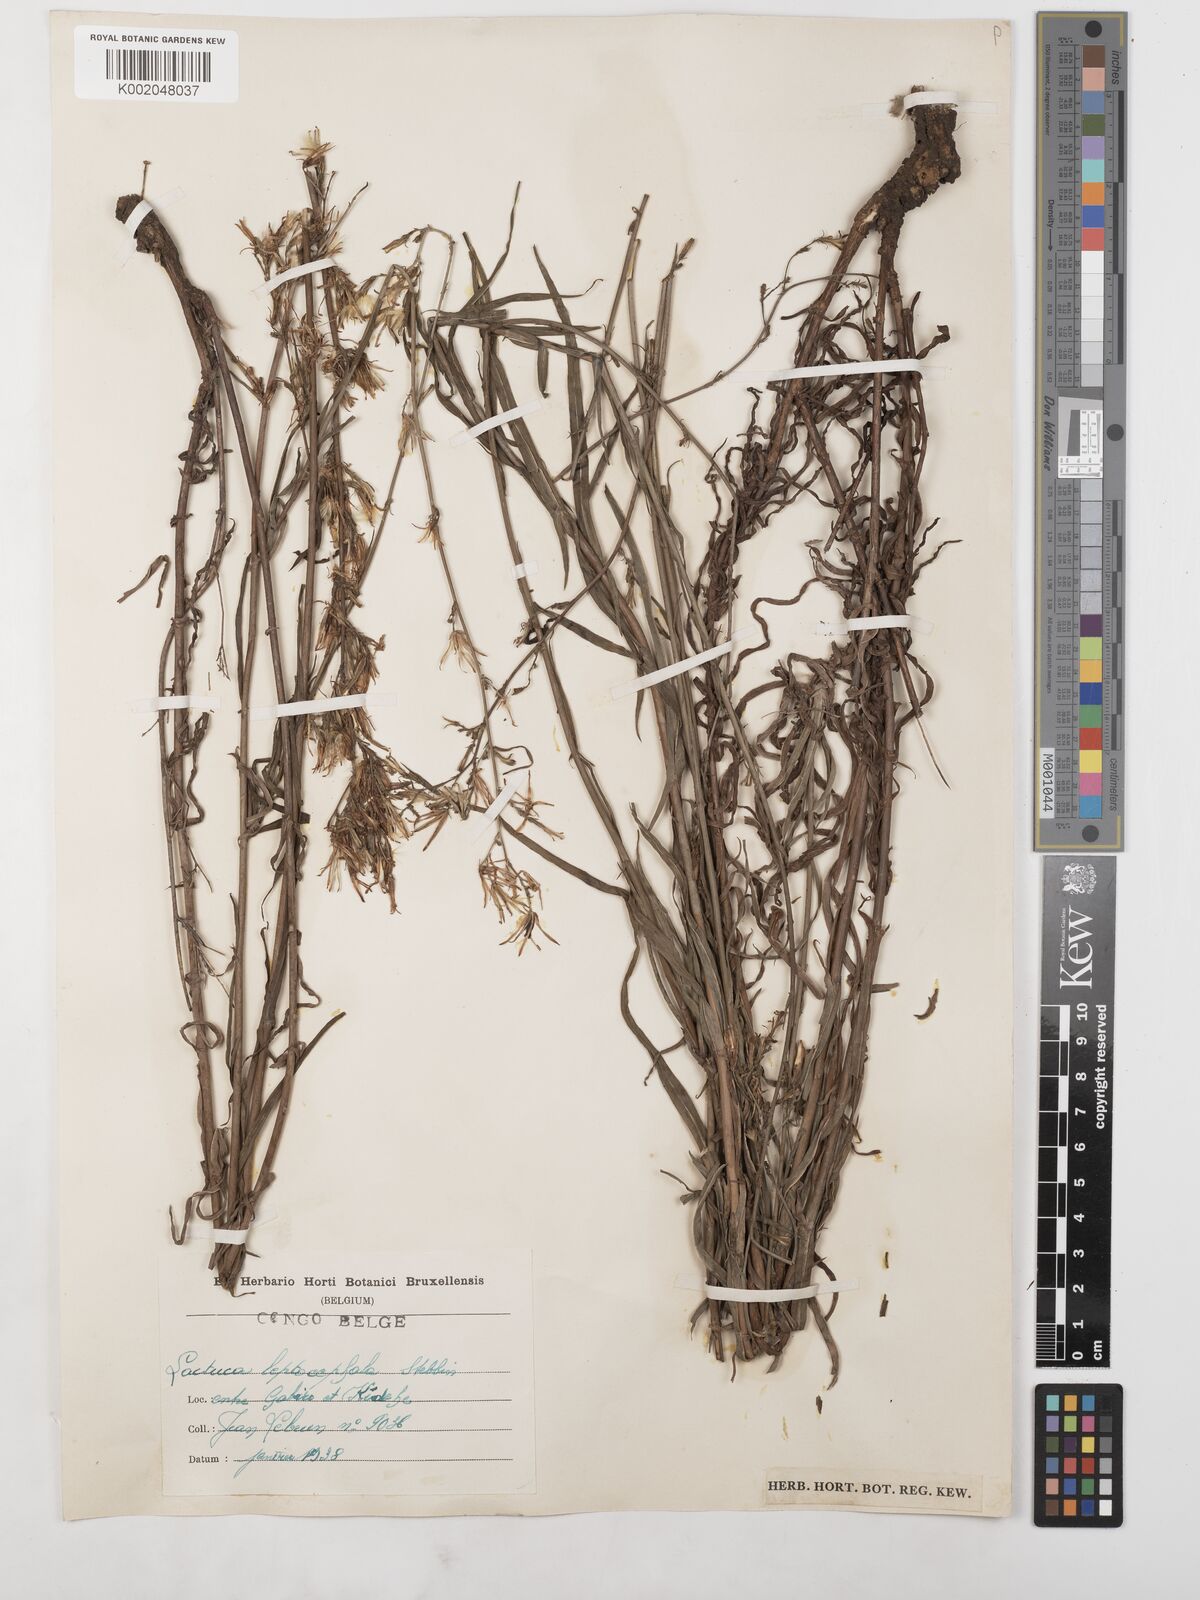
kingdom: Plantae
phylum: Tracheophyta
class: Magnoliopsida
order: Asterales
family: Asteraceae
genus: Lactuca
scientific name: Lactuca inermis
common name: Wild lettuce
